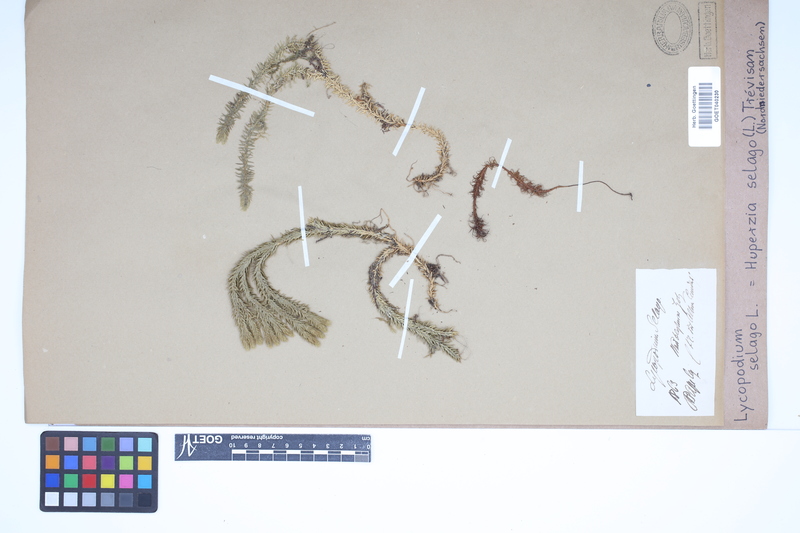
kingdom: Plantae
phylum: Tracheophyta
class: Lycopodiopsida
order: Lycopodiales
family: Lycopodiaceae
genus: Huperzia
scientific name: Huperzia selago
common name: Northern firmoss
